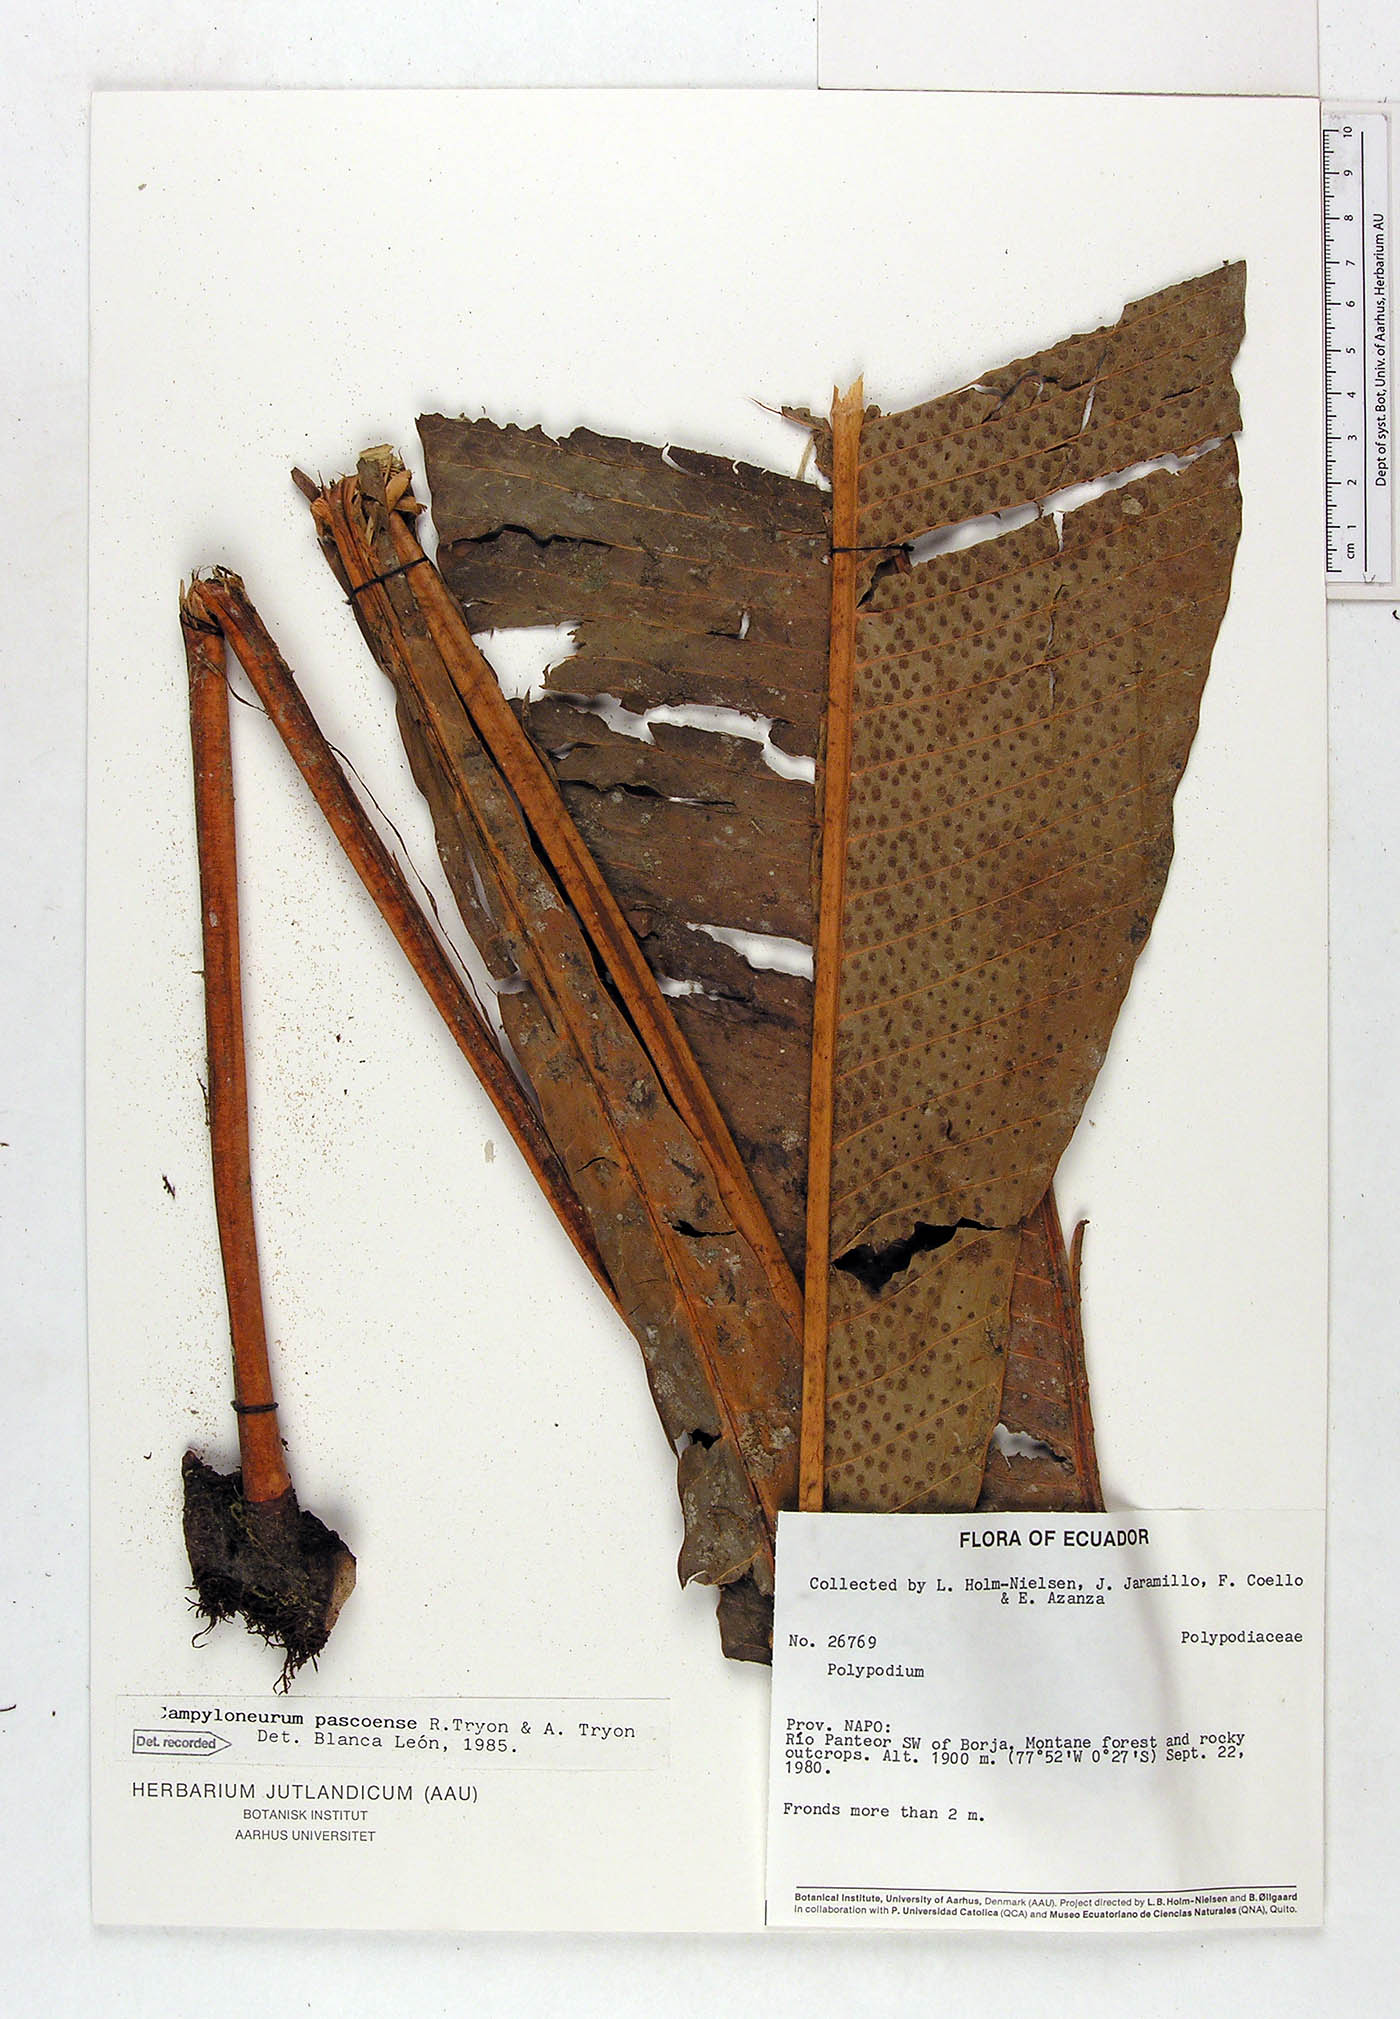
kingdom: Plantae
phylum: Tracheophyta
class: Polypodiopsida
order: Polypodiales
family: Polypodiaceae
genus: Campyloneurum
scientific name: Campyloneurum pascoense
